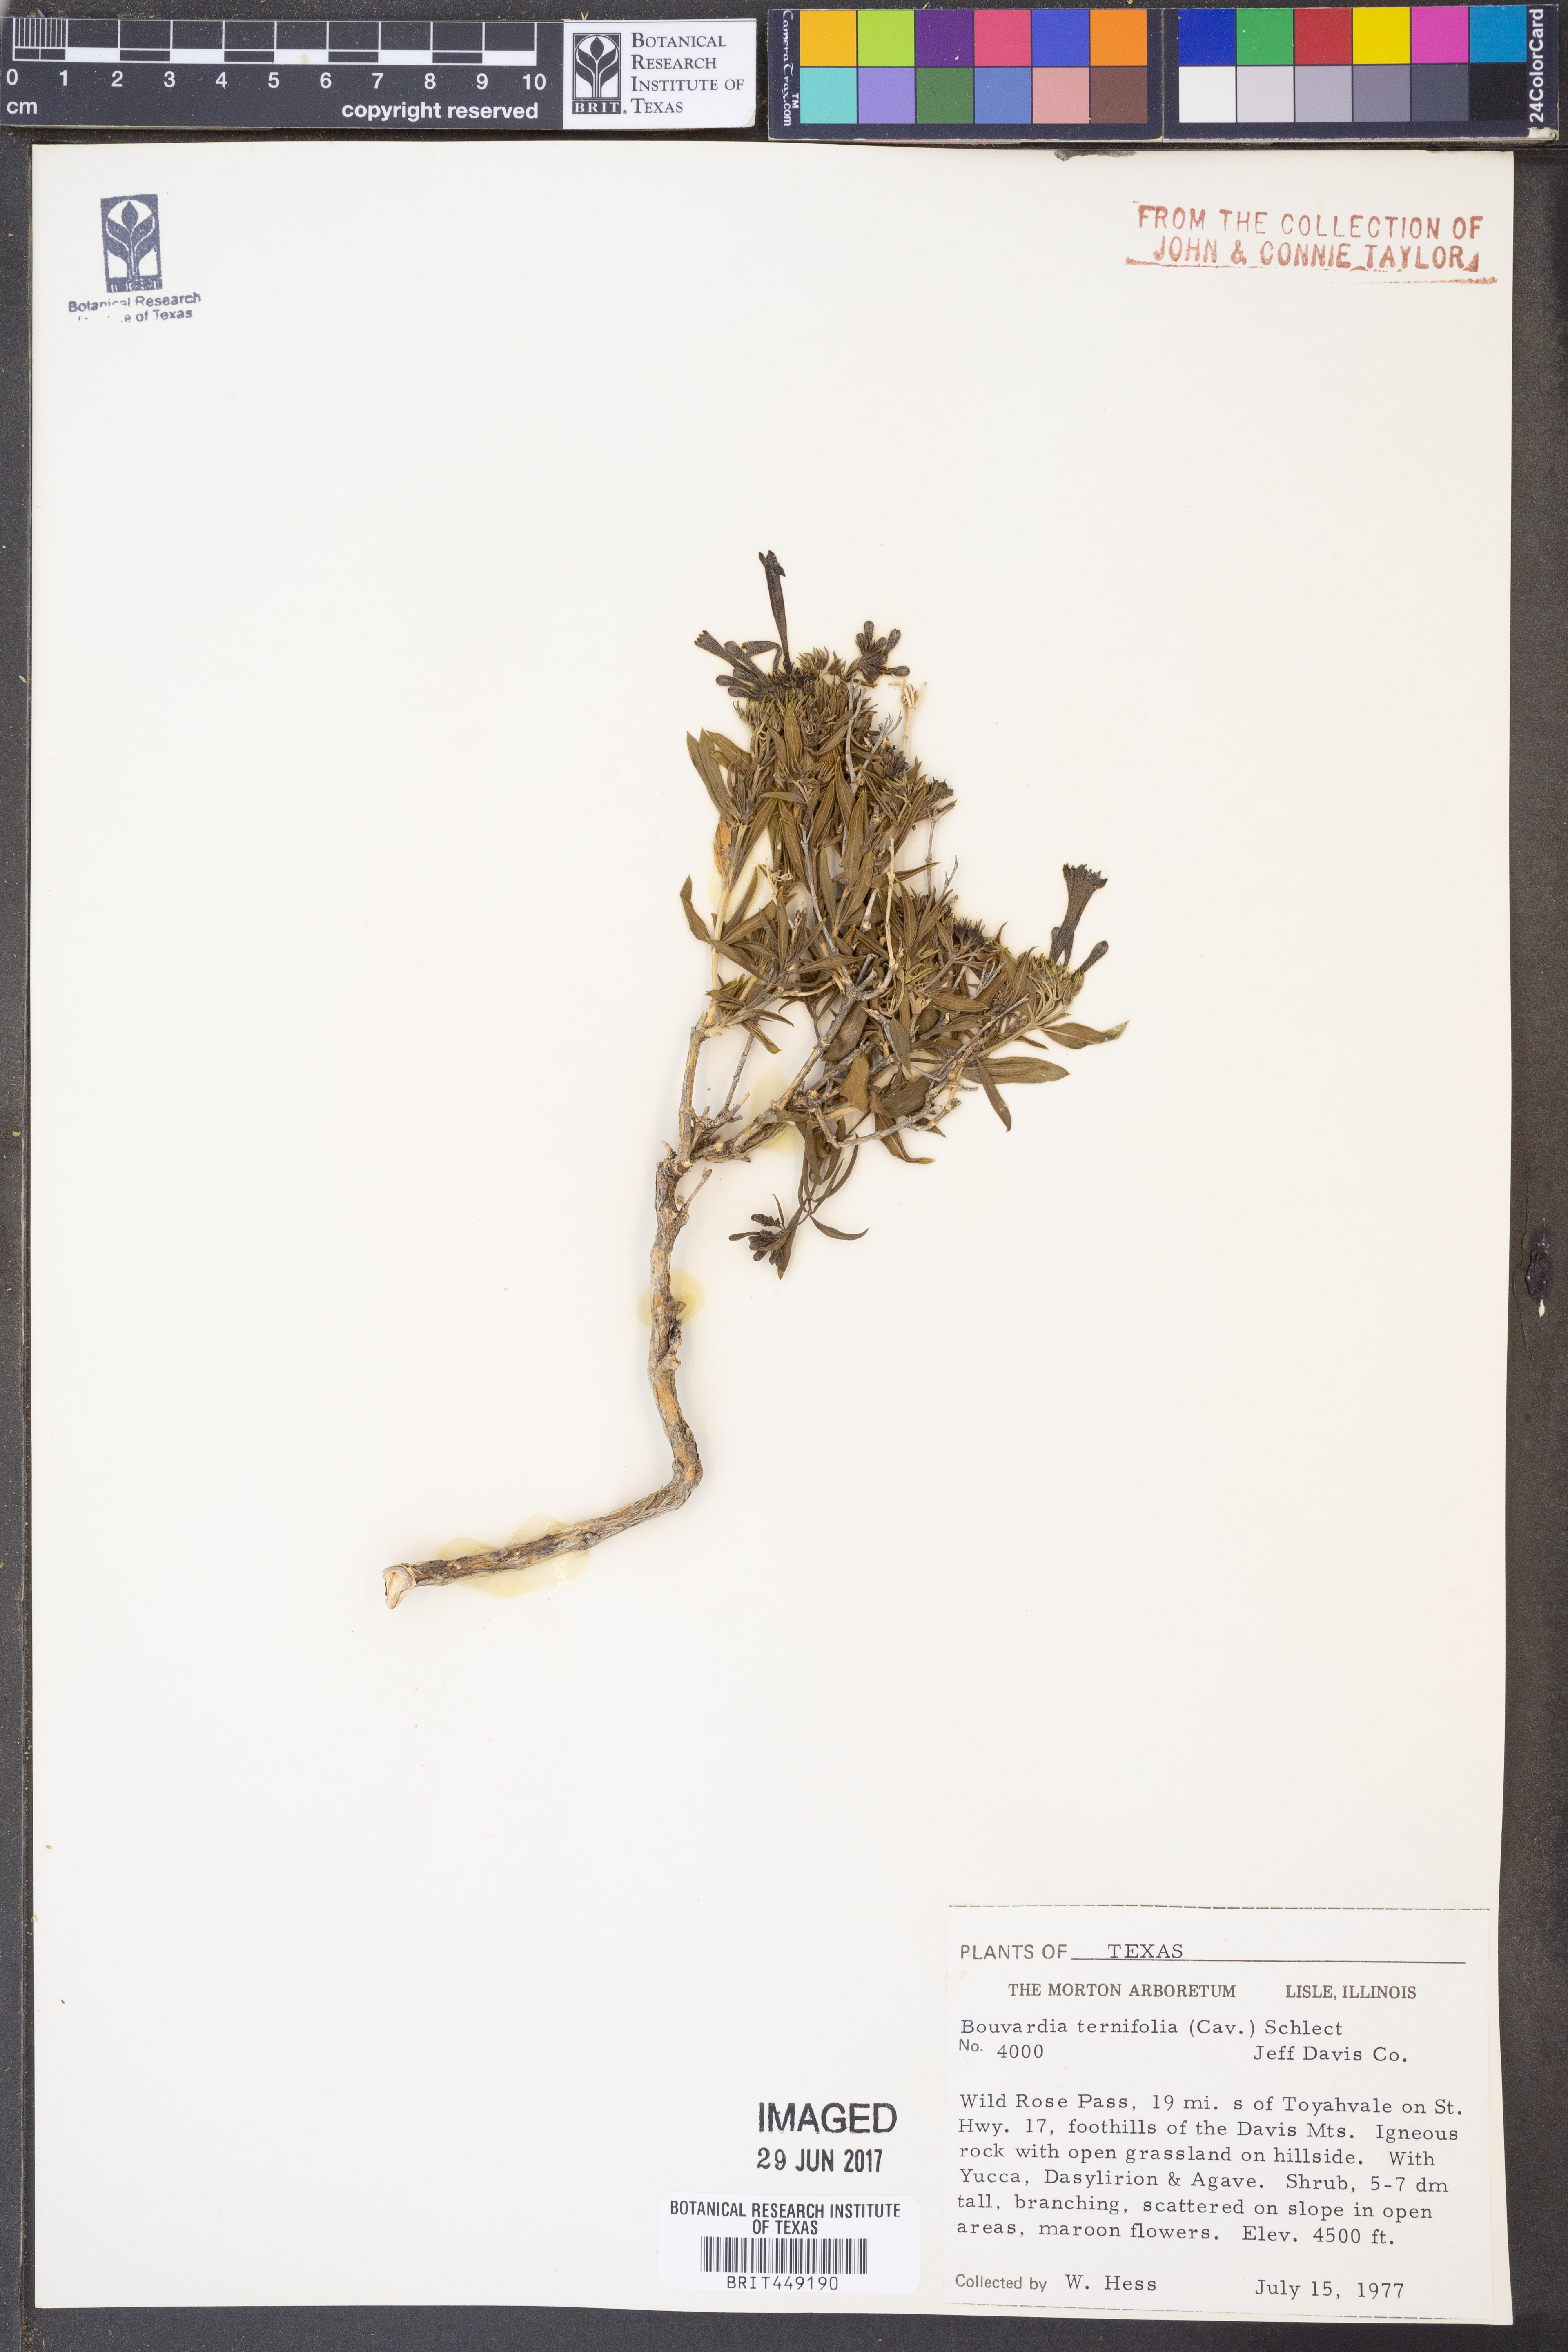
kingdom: Plantae
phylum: Tracheophyta
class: Magnoliopsida
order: Gentianales
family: Rubiaceae
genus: Bouvardia
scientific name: Bouvardia ternifolia
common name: Scarlet bouvardia
